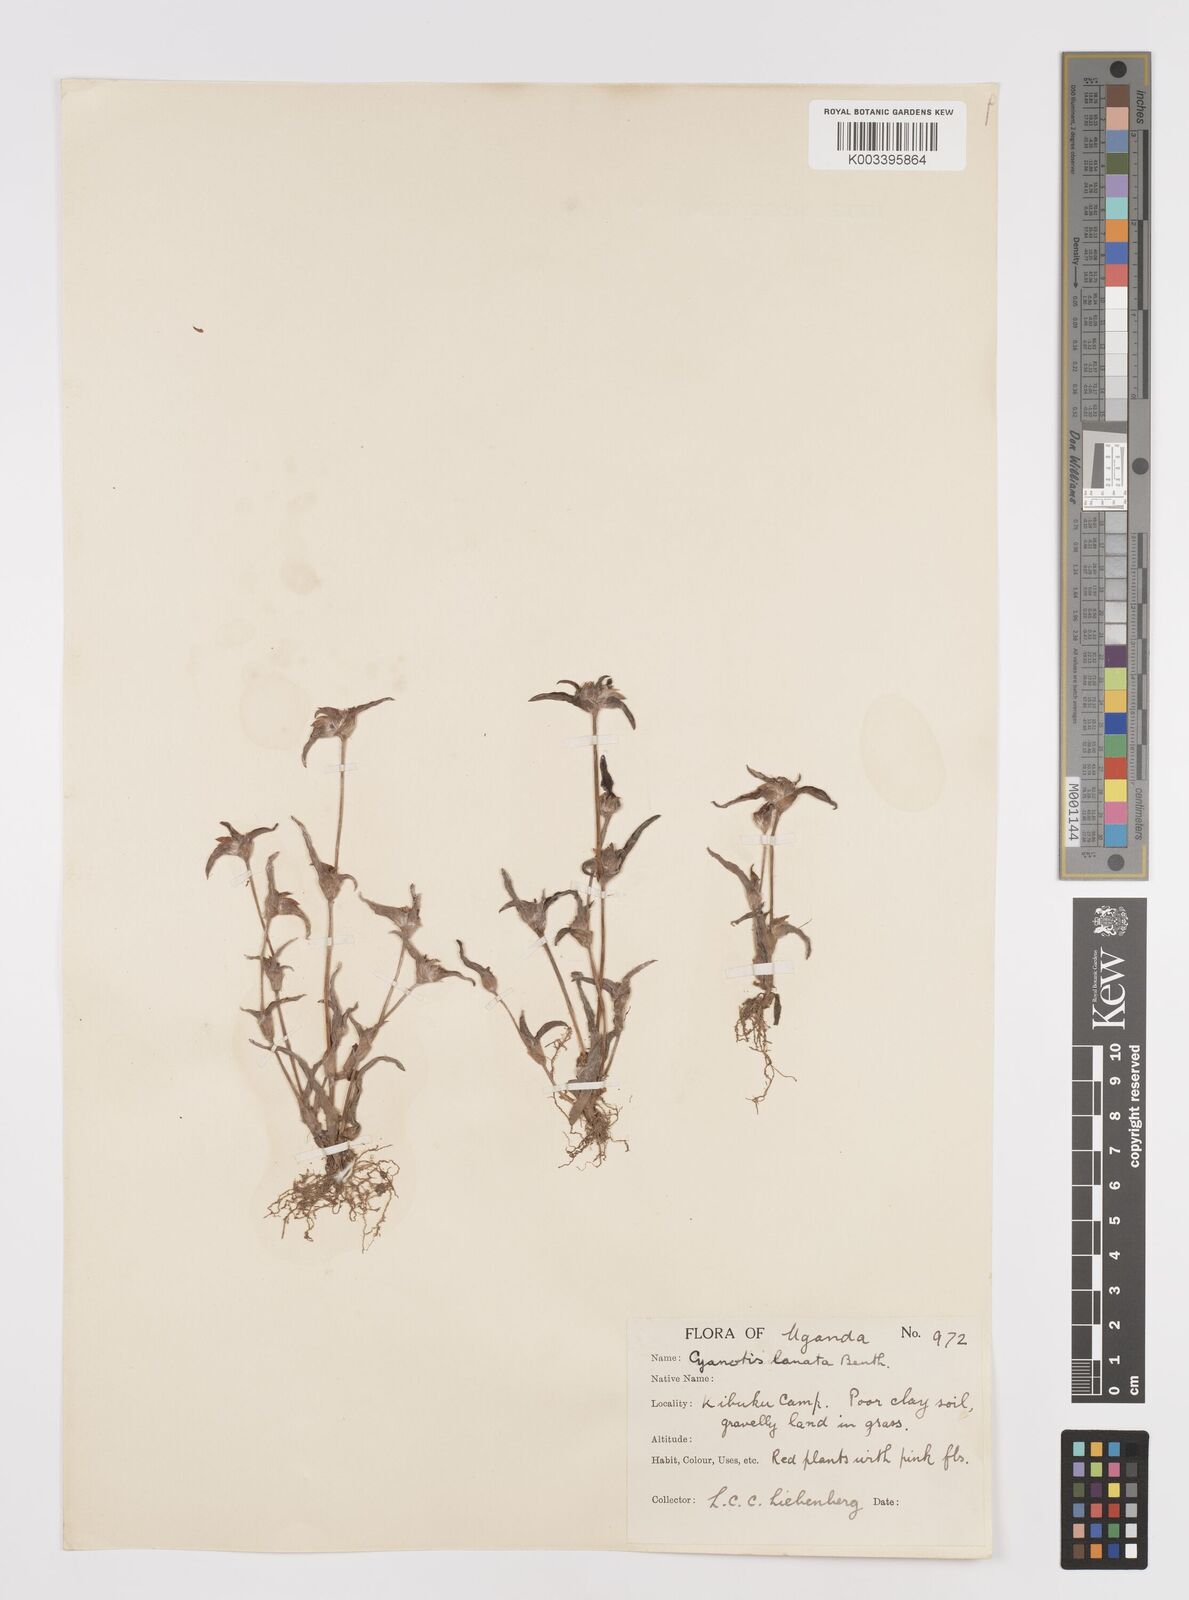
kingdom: Plantae
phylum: Tracheophyta
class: Liliopsida
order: Commelinales
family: Commelinaceae
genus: Cyanotis
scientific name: Cyanotis lanata
